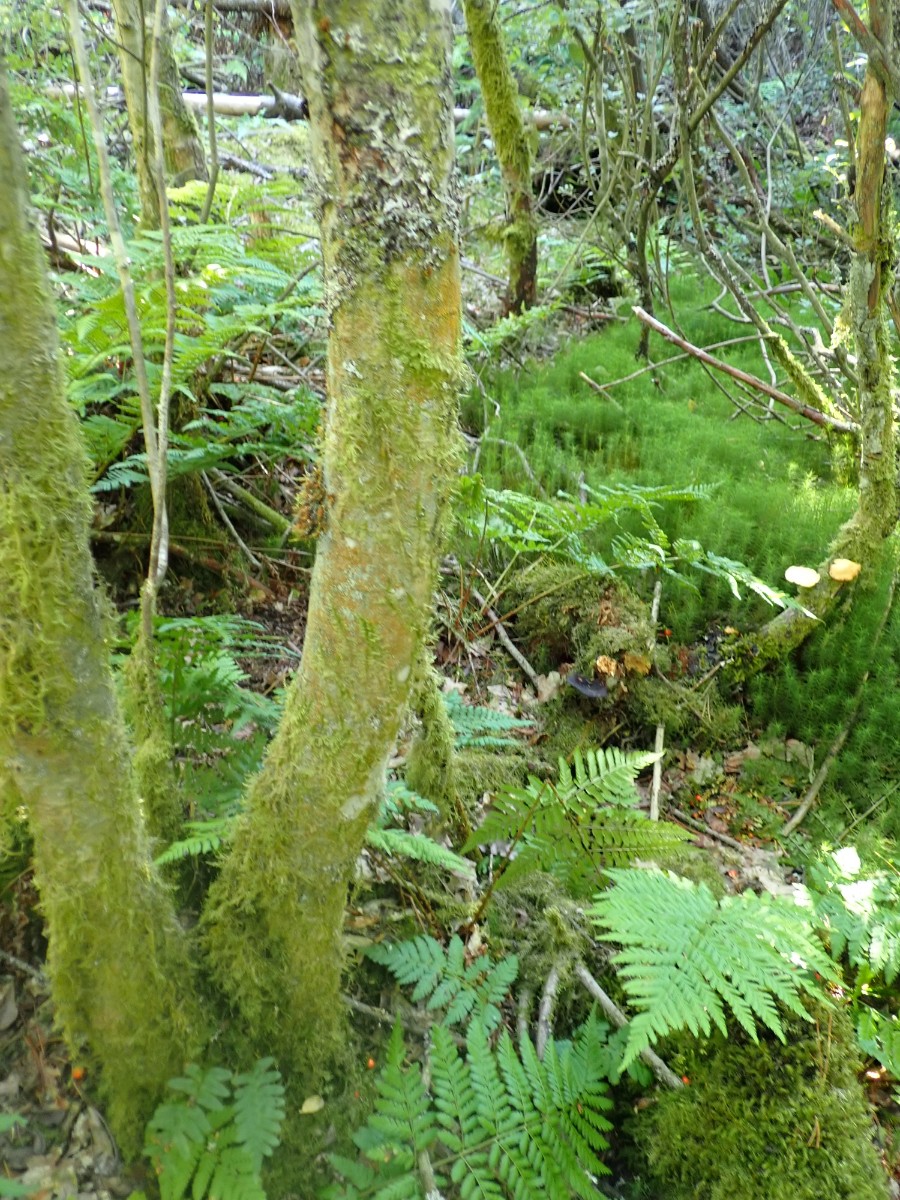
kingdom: Fungi
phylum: Basidiomycota
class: Agaricomycetes
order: Agaricales
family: Hygrophoraceae
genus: Gloioxanthomyces
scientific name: Gloioxanthomyces vitellinus
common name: kromgul vokshat
